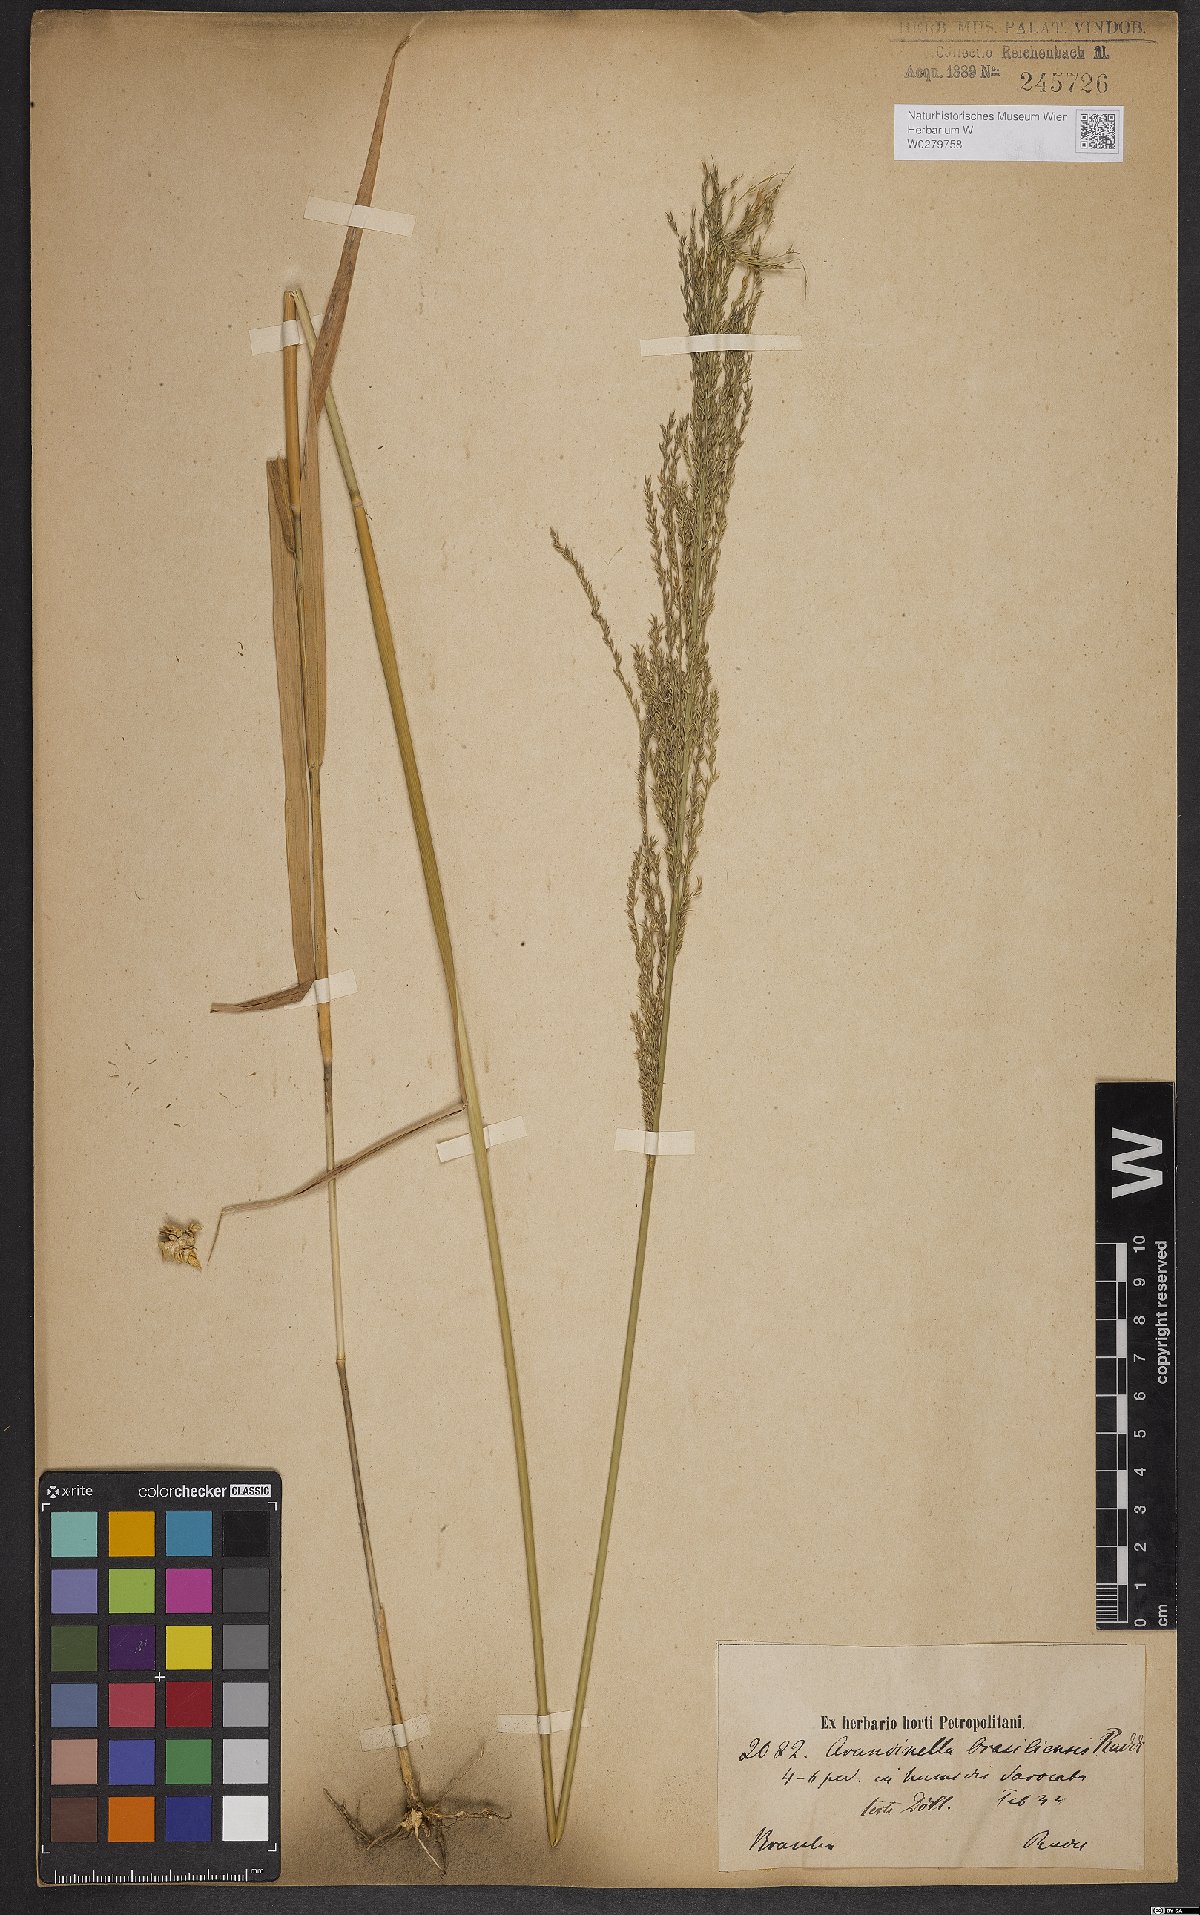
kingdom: Plantae
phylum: Tracheophyta
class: Liliopsida
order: Poales
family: Poaceae
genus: Arundinella
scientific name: Arundinella hispida
